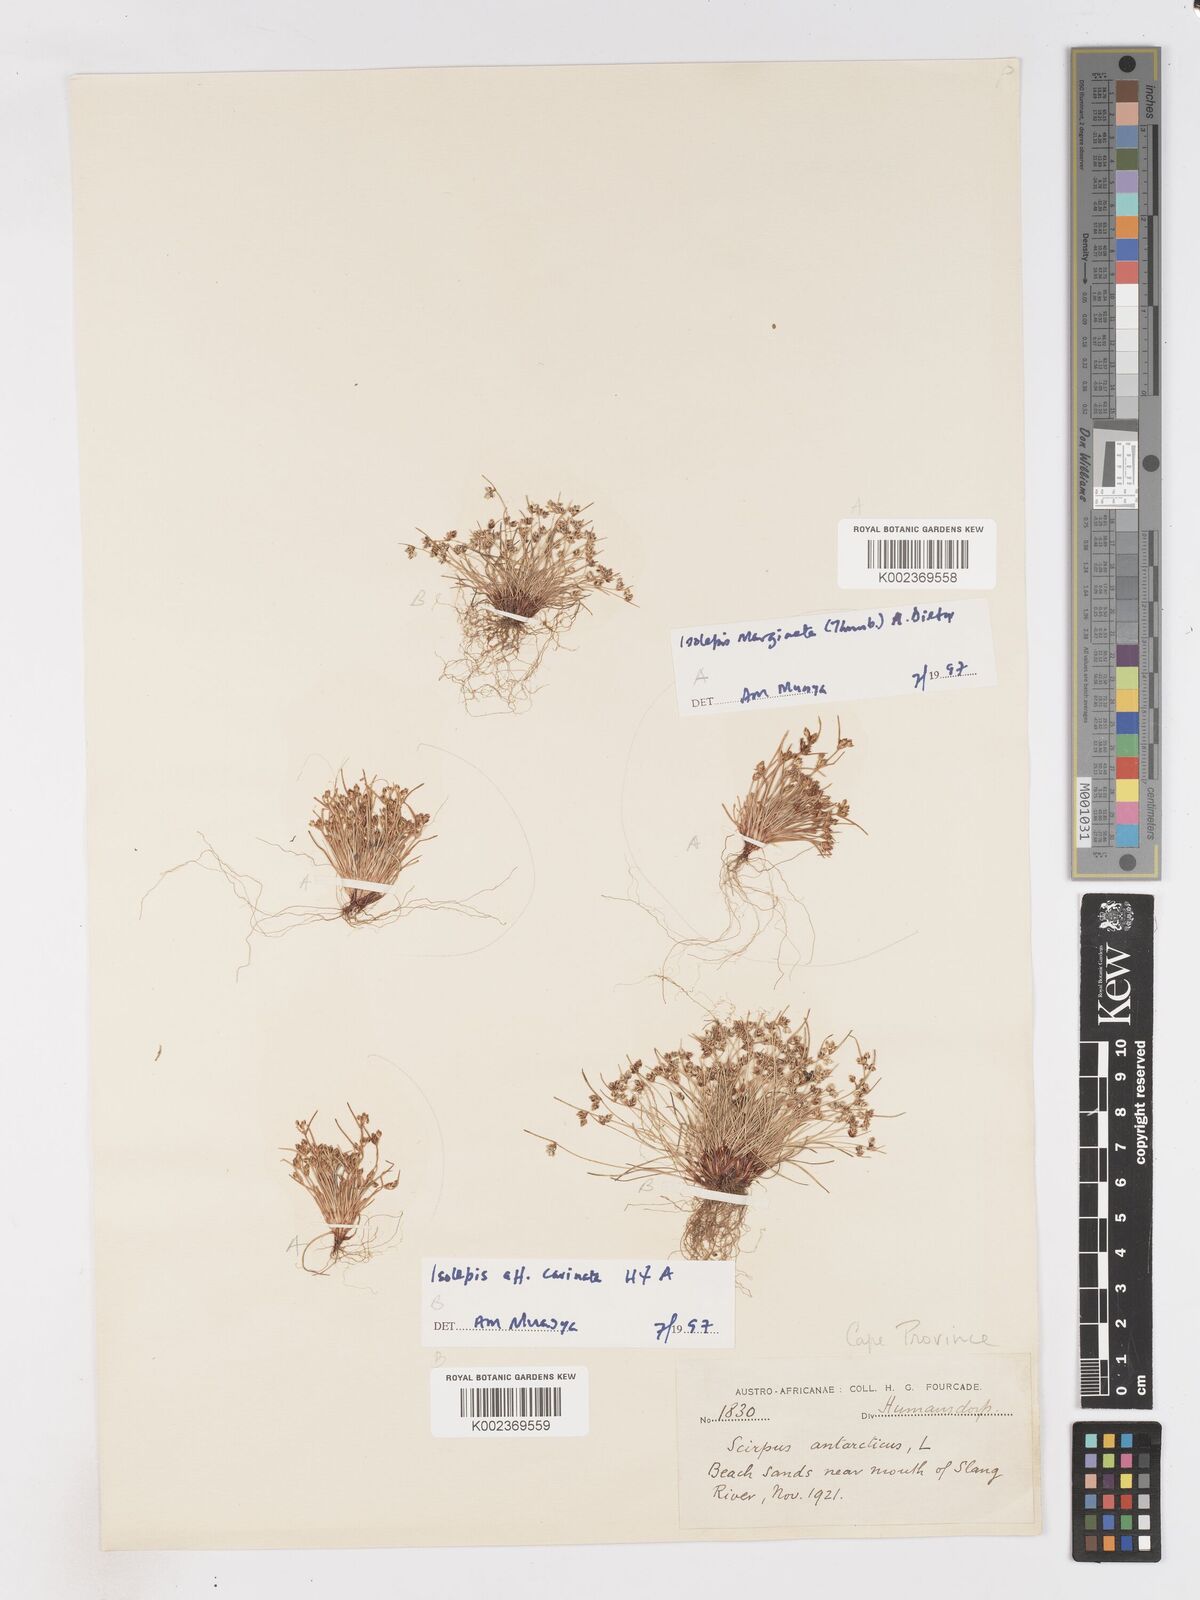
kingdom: Plantae
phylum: Tracheophyta
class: Liliopsida
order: Poales
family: Cyperaceae
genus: Isolepis
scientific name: Isolepis marginata
